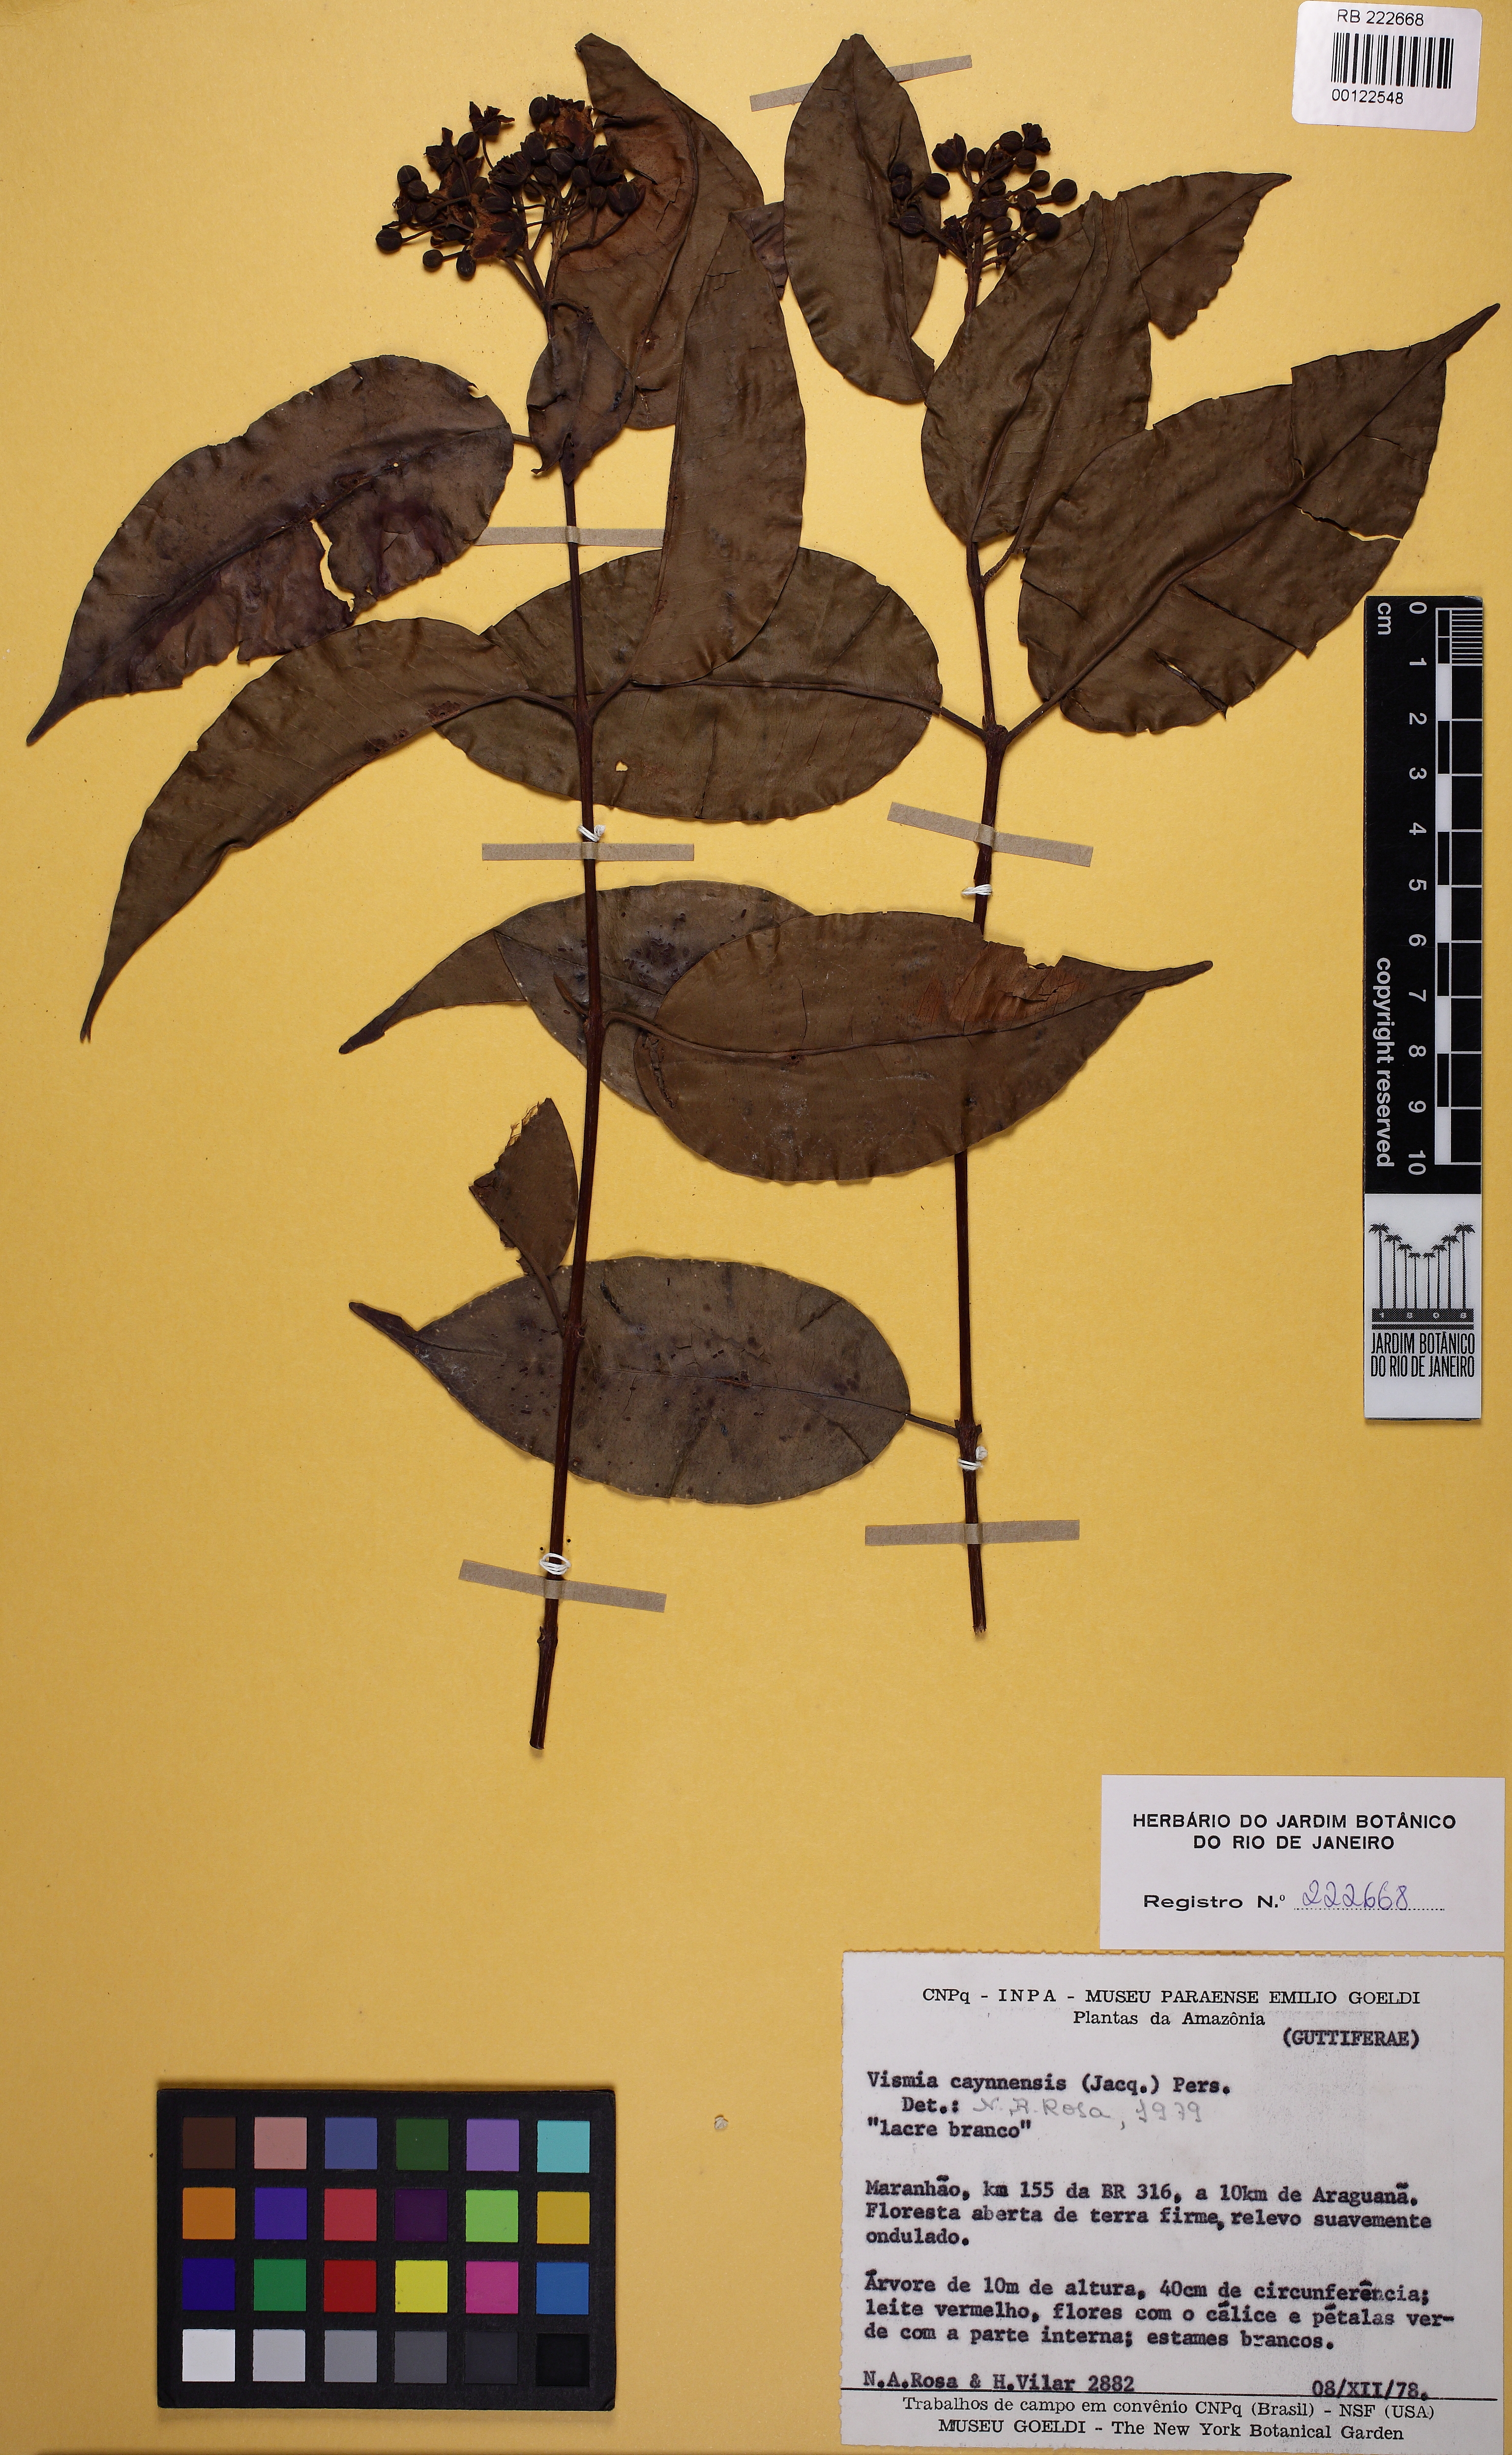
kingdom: Plantae
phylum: Tracheophyta
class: Magnoliopsida
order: Malpighiales
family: Hypericaceae
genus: Vismia
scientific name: Vismia cayennensis
